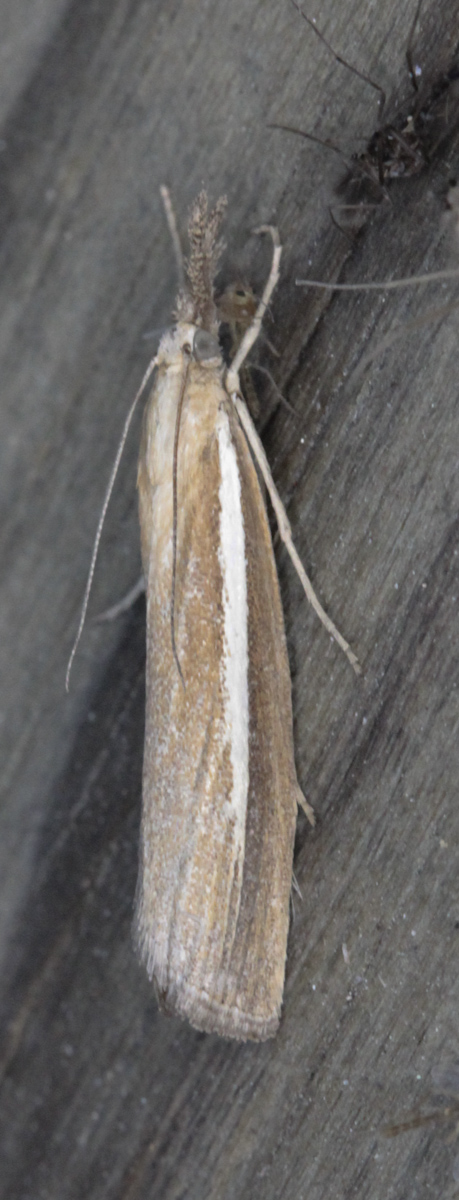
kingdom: Animalia
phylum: Arthropoda
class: Insecta
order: Lepidoptera
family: Crambidae
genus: Agriphila
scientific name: Agriphila tristellus
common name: Common grass-veneer
